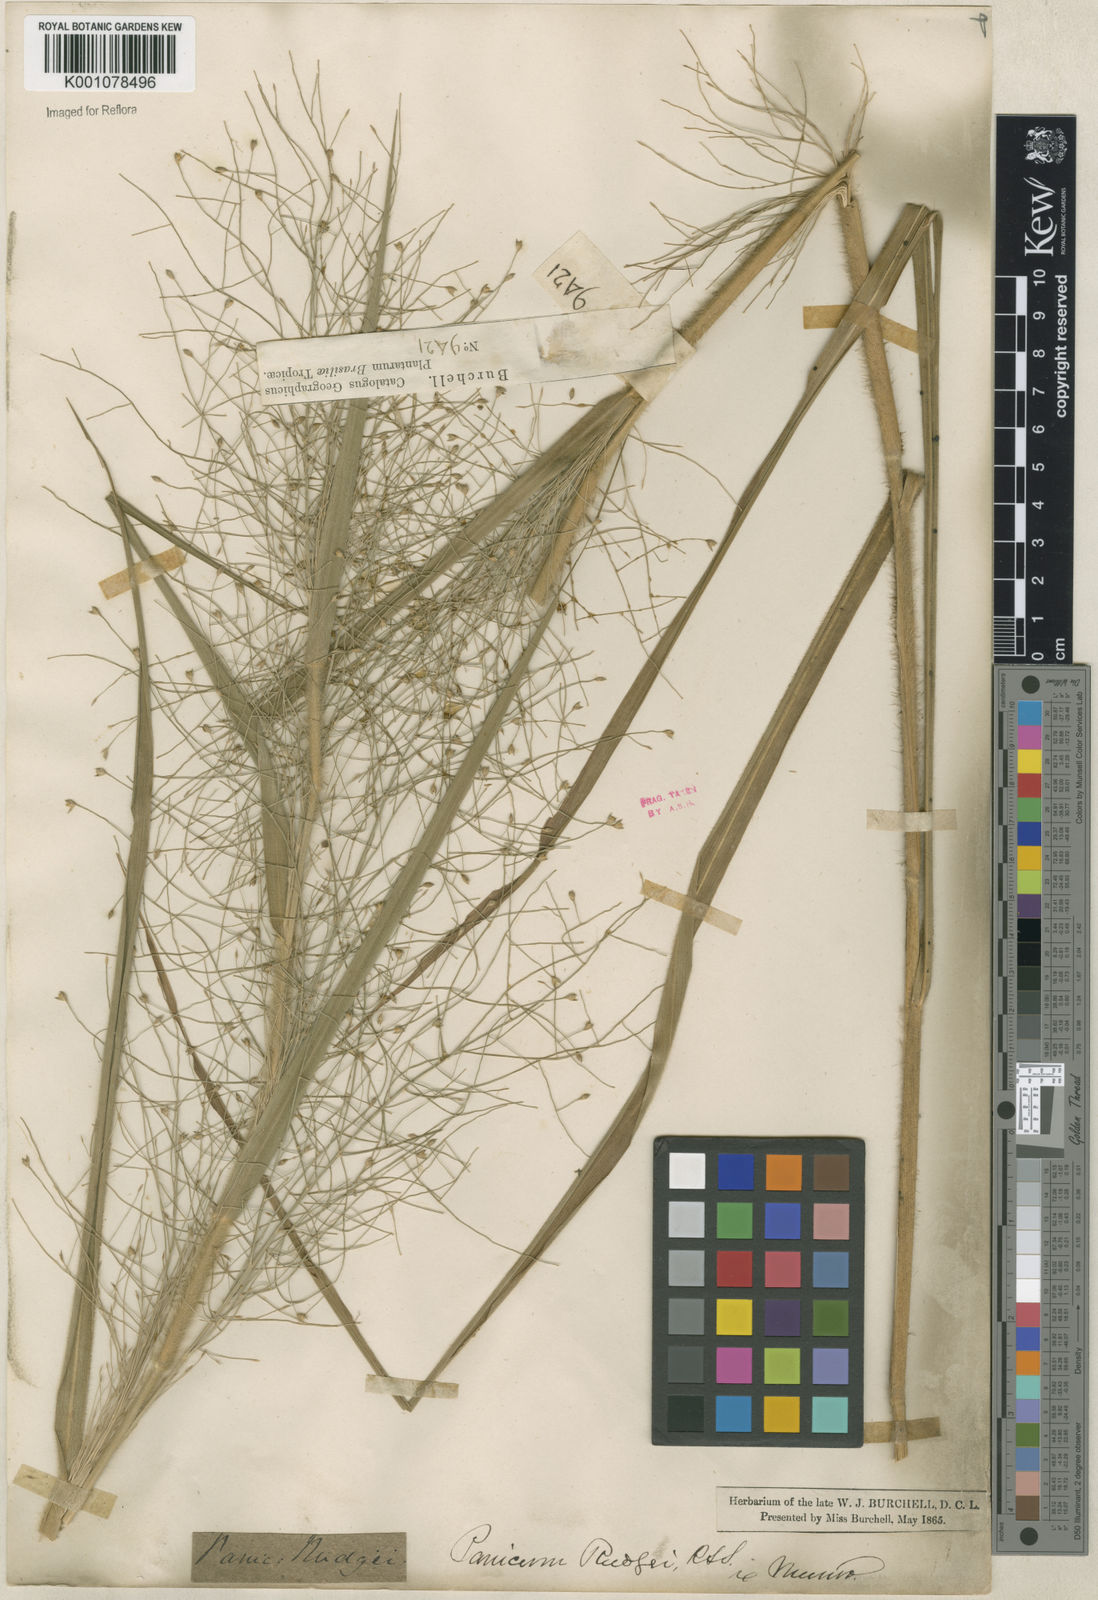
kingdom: Plantae
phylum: Tracheophyta
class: Liliopsida
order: Poales
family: Poaceae
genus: Panicum
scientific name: Panicum rudgei
